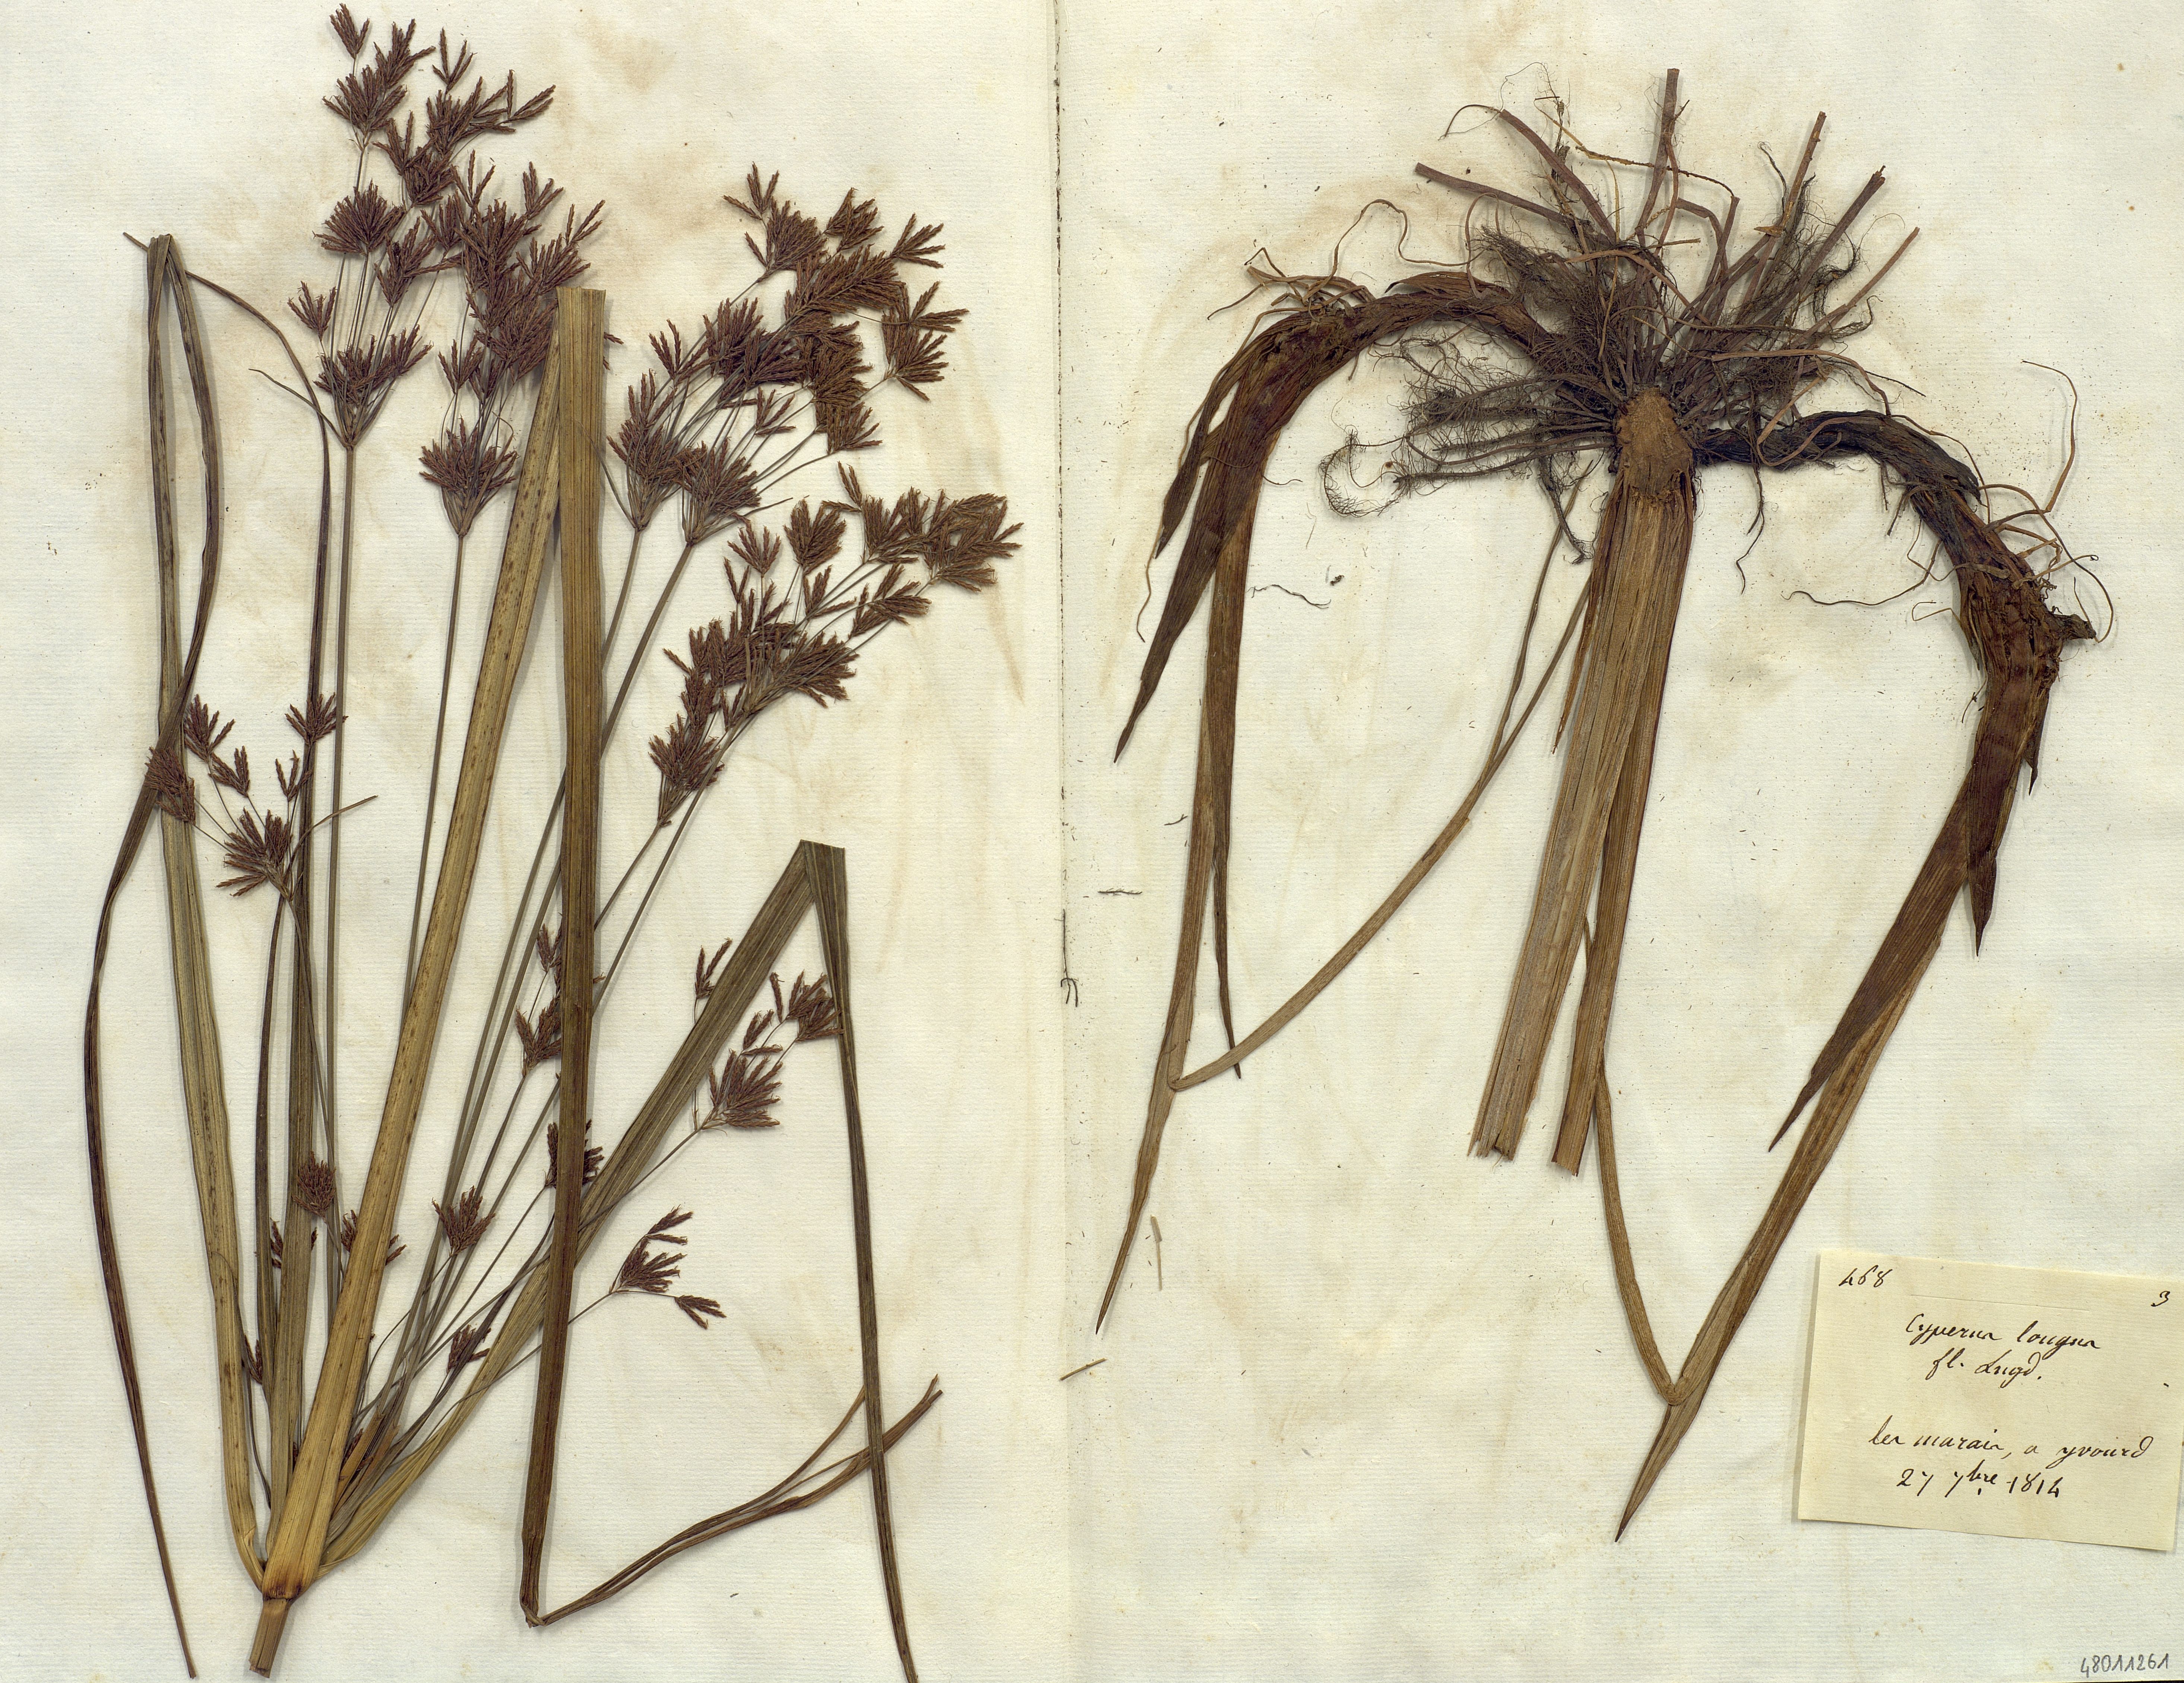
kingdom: Plantae
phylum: Tracheophyta
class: Liliopsida
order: Poales
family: Cyperaceae
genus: Cyperus
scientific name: Cyperus longus
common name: Galingale
